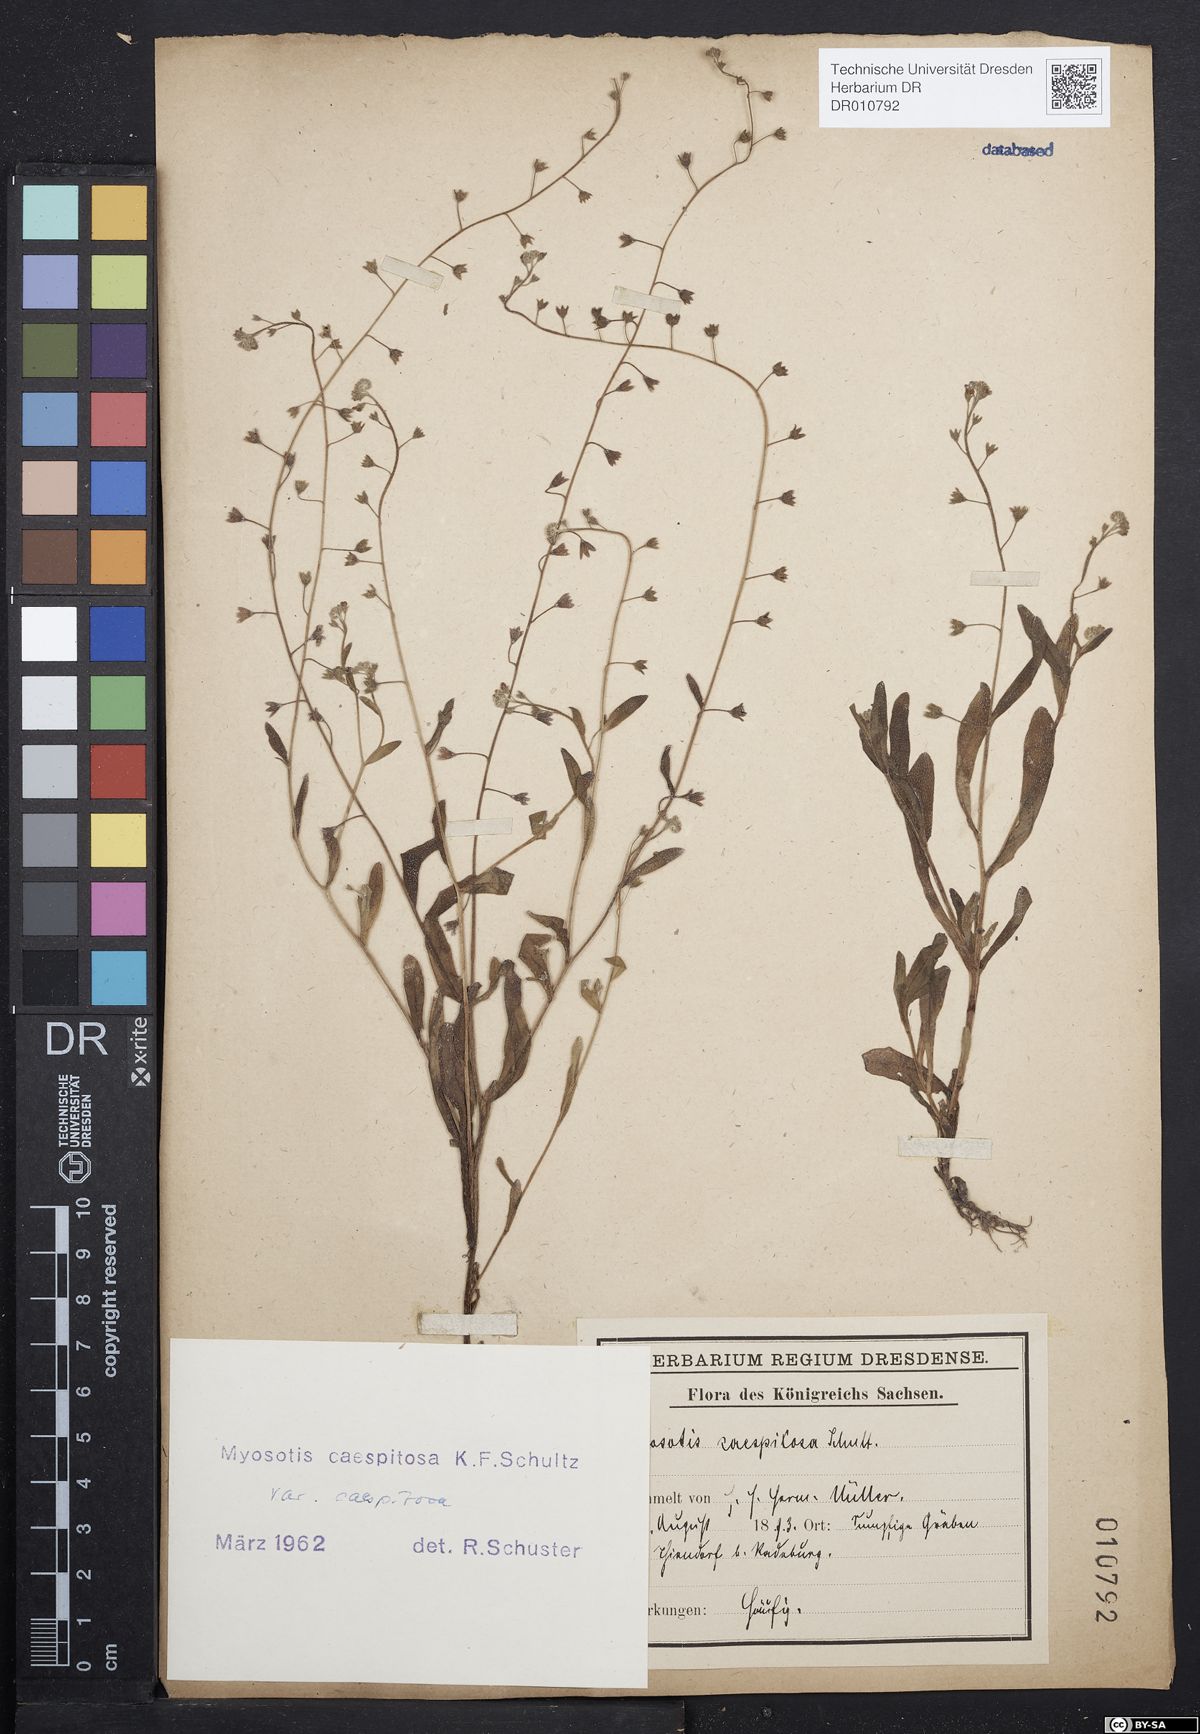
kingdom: Plantae
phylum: Tracheophyta
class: Magnoliopsida
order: Boraginales
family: Boraginaceae
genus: Myosotis
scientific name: Myosotis laxa
